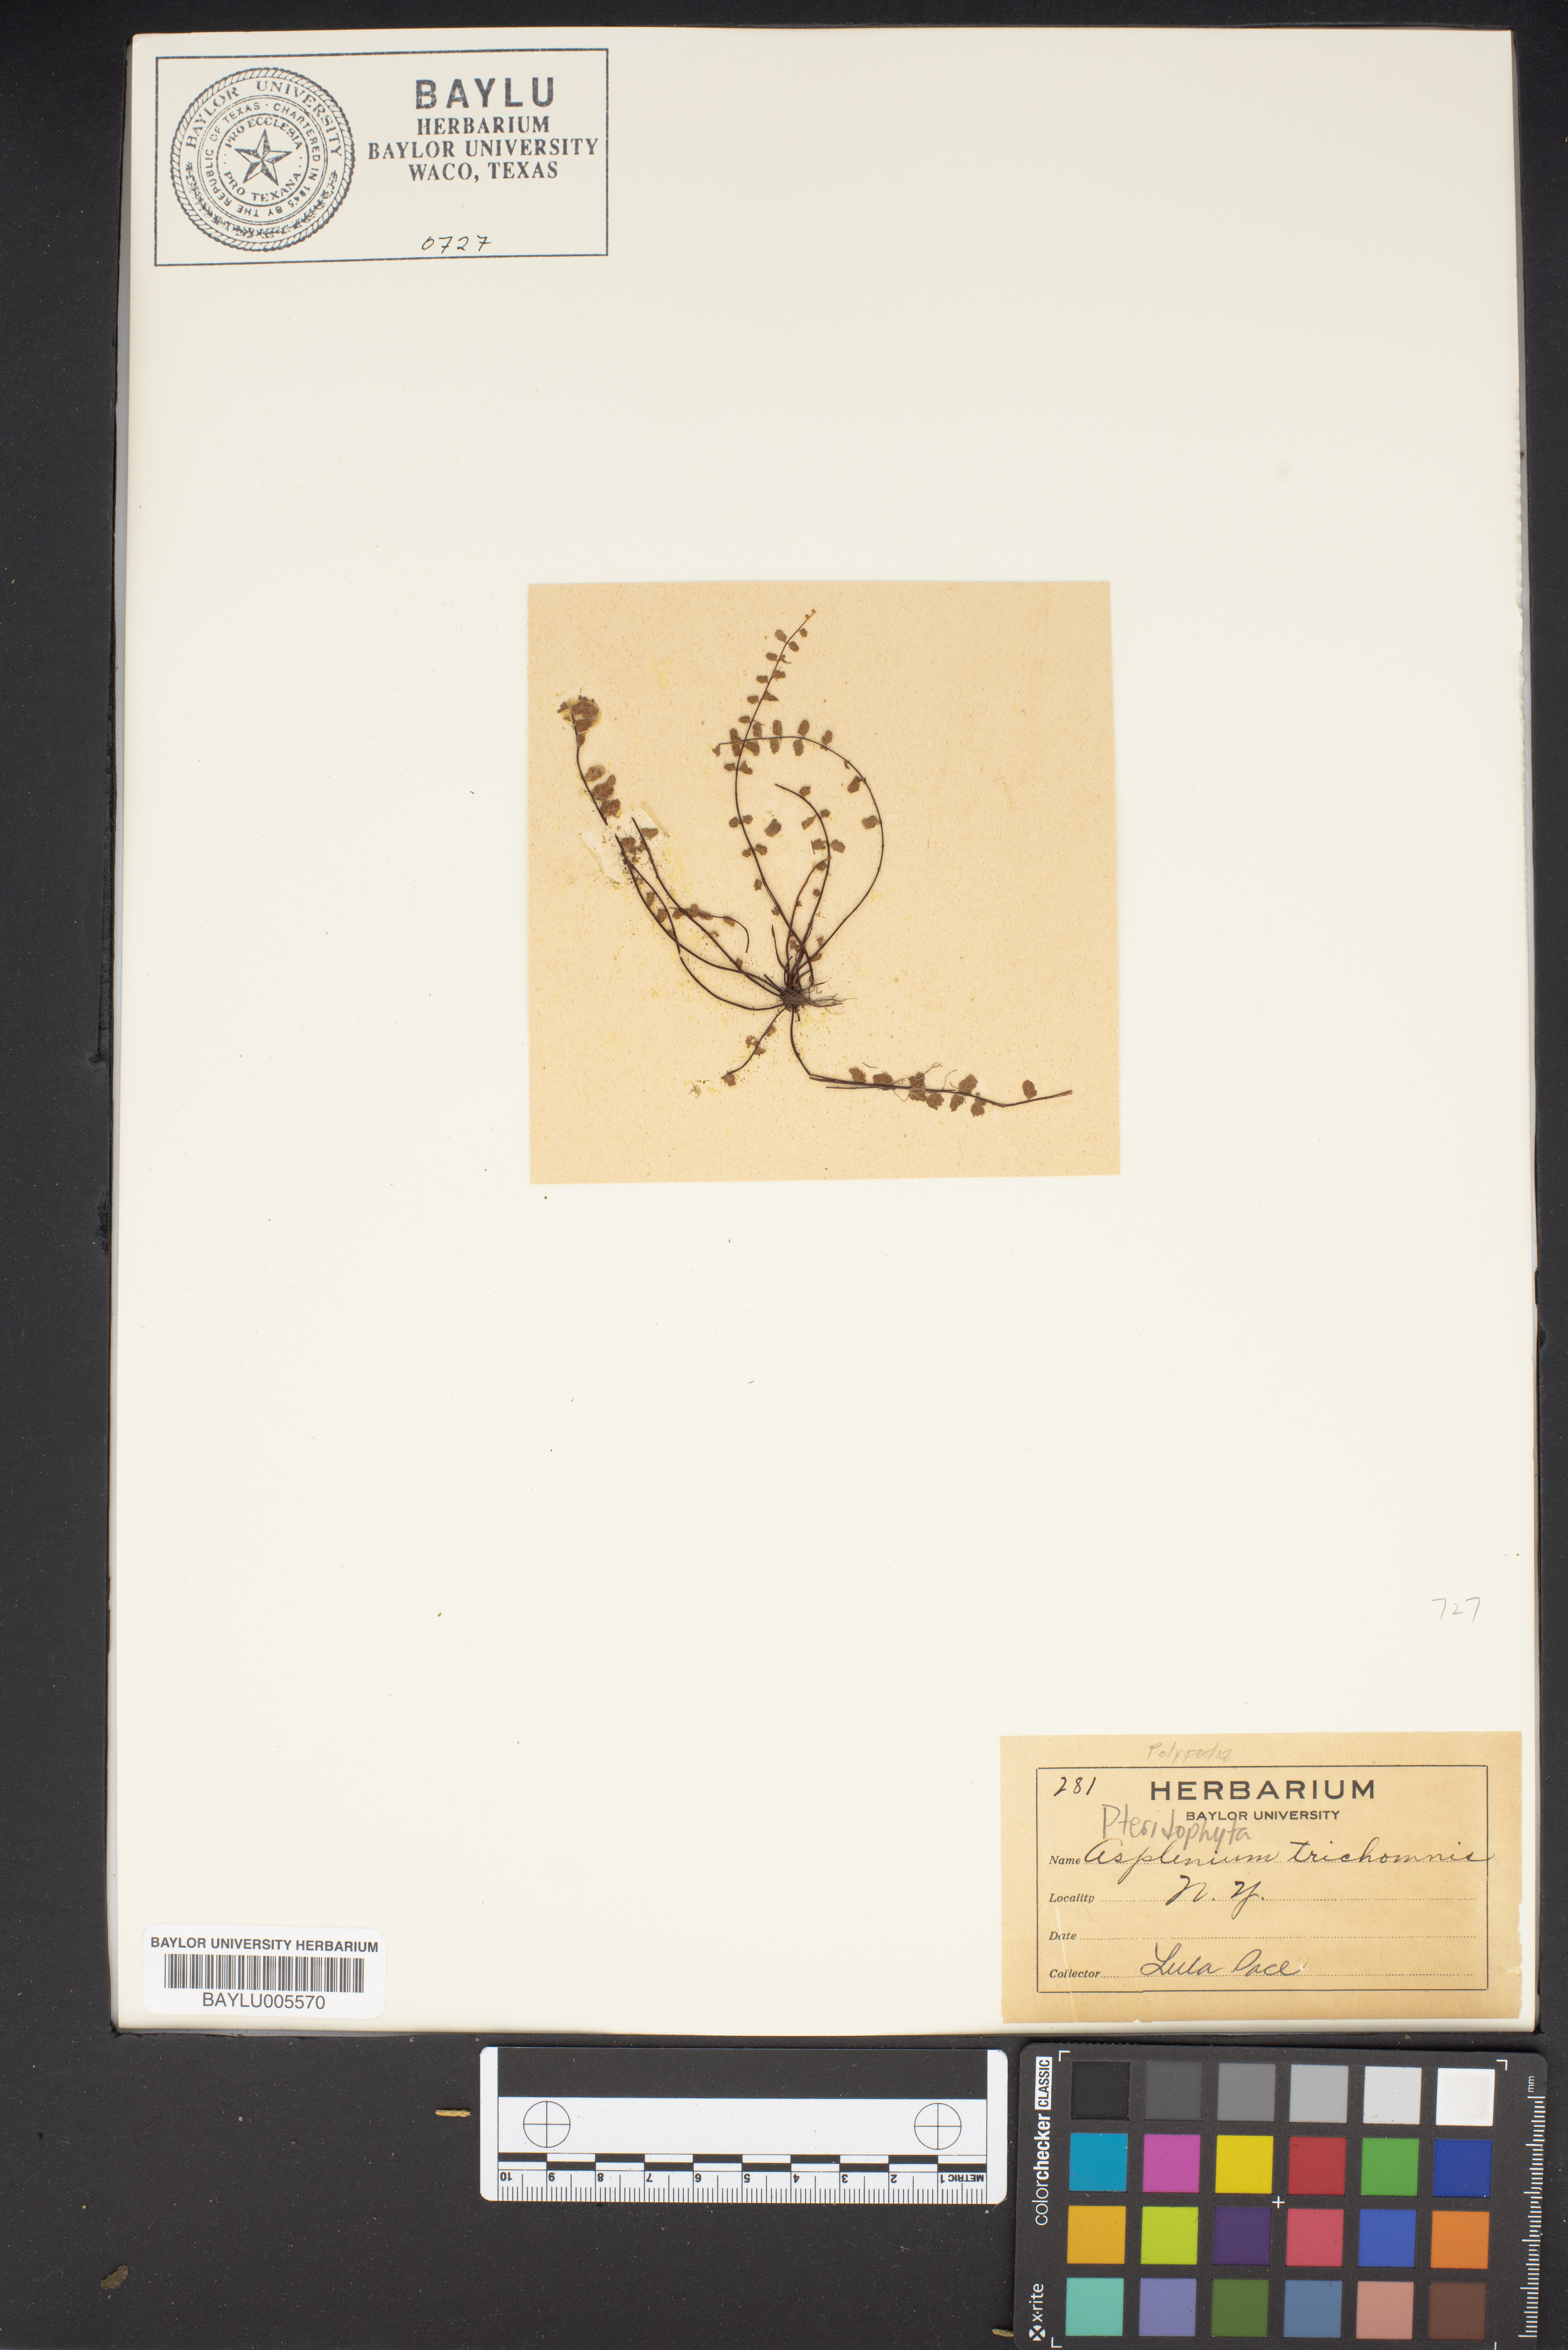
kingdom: Plantae
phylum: Tracheophyta
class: Polypodiopsida
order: Polypodiales
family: Aspleniaceae
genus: Asplenium
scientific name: Asplenium trichomanes
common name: Maidenhair spleenwort
